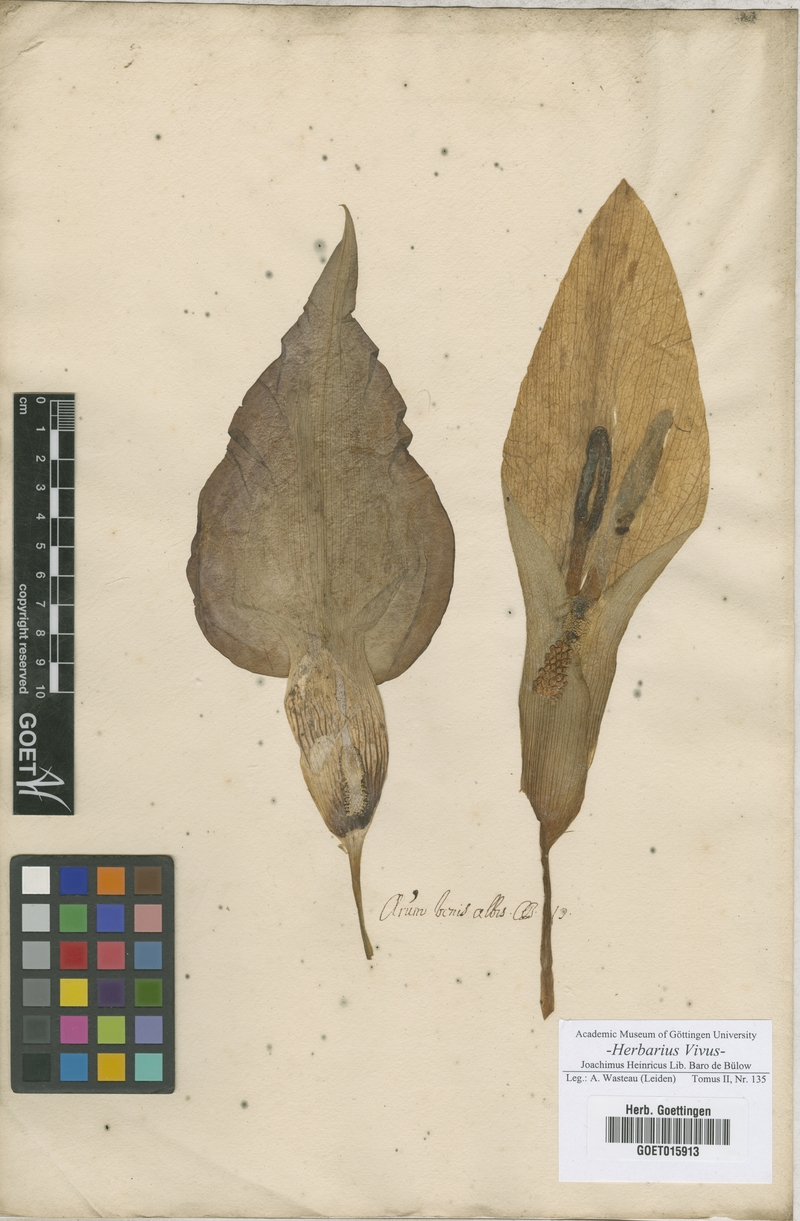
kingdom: Plantae
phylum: Tracheophyta
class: Liliopsida
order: Alismatales
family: Araceae
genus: Arum
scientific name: Arum maculatum
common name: Lords-and-ladies
